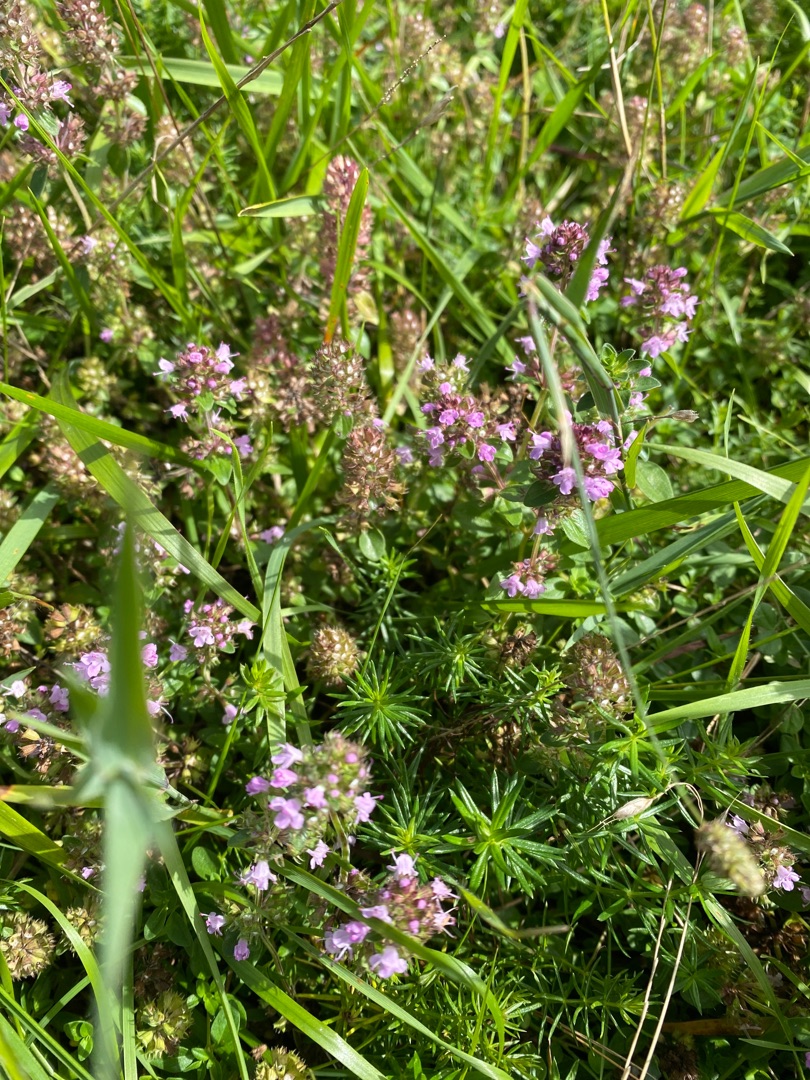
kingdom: Plantae
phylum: Tracheophyta
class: Magnoliopsida
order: Lamiales
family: Lamiaceae
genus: Thymus
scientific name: Thymus pulegioides
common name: Bredbladet timian
